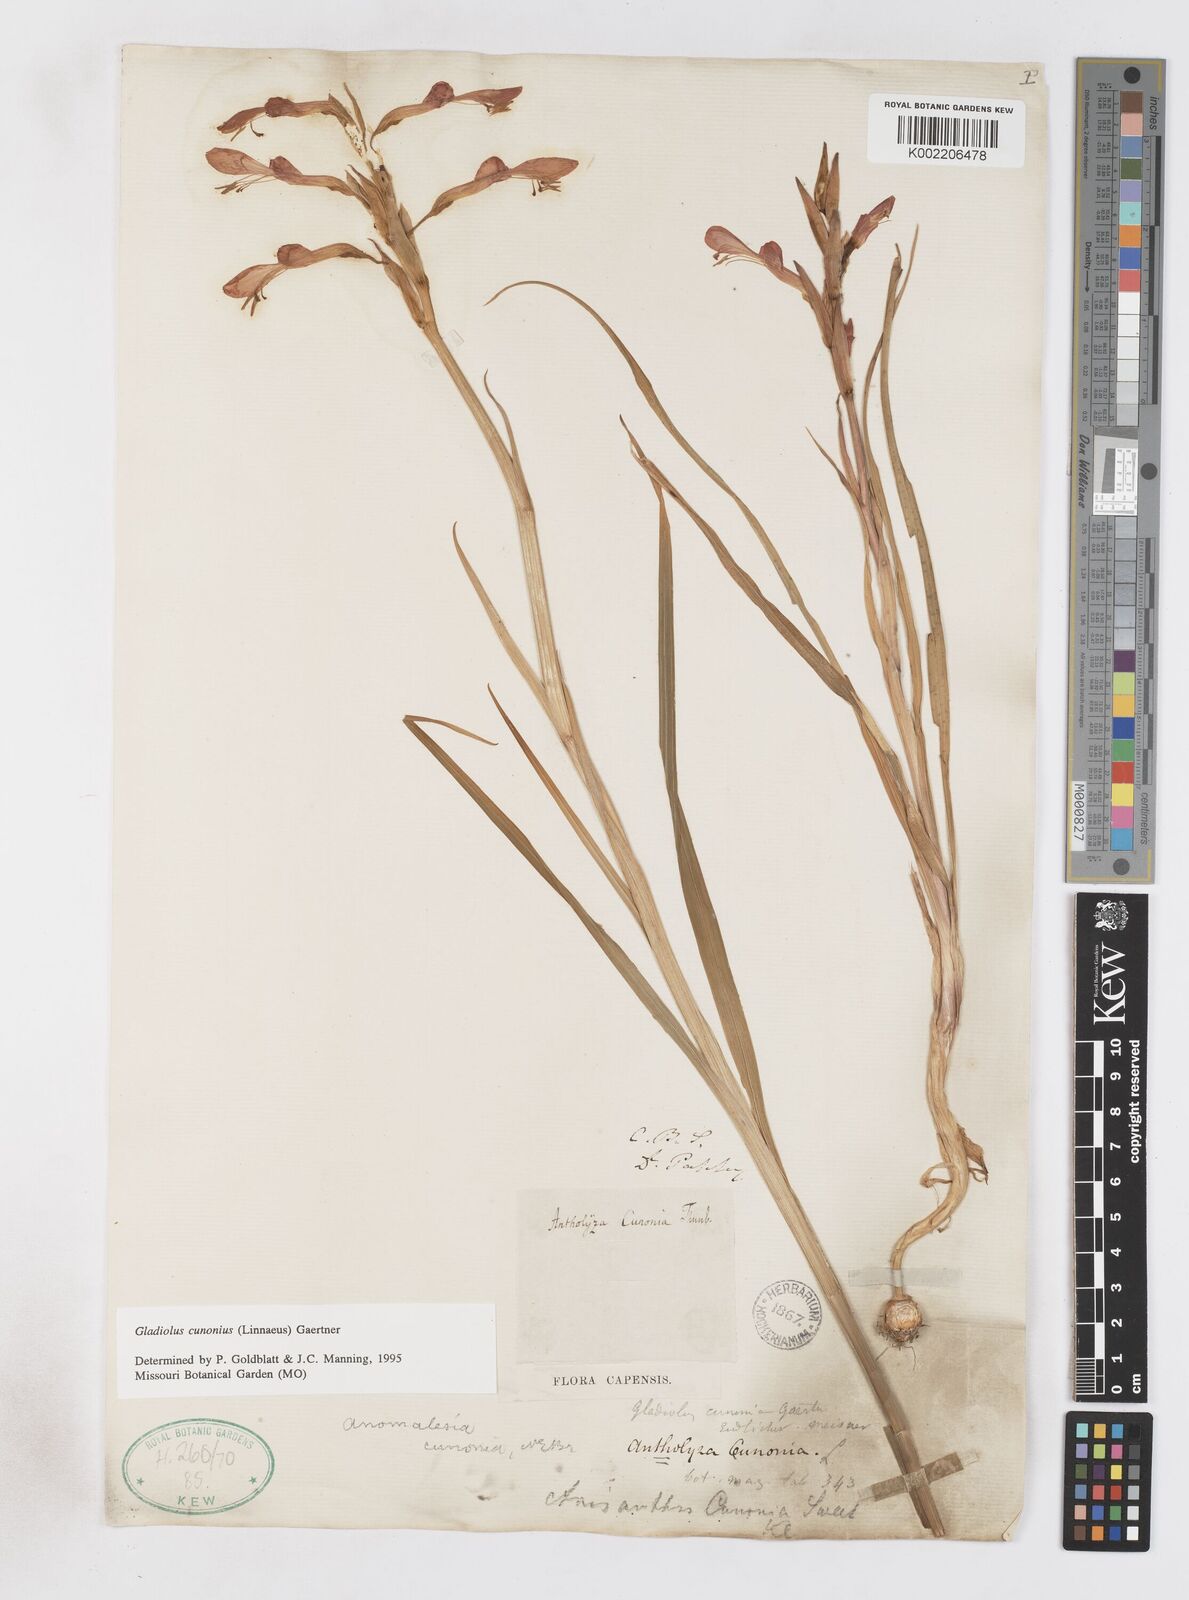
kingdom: Plantae
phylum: Tracheophyta
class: Liliopsida
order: Asparagales
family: Iridaceae
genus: Gladiolus
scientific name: Gladiolus cunonius
